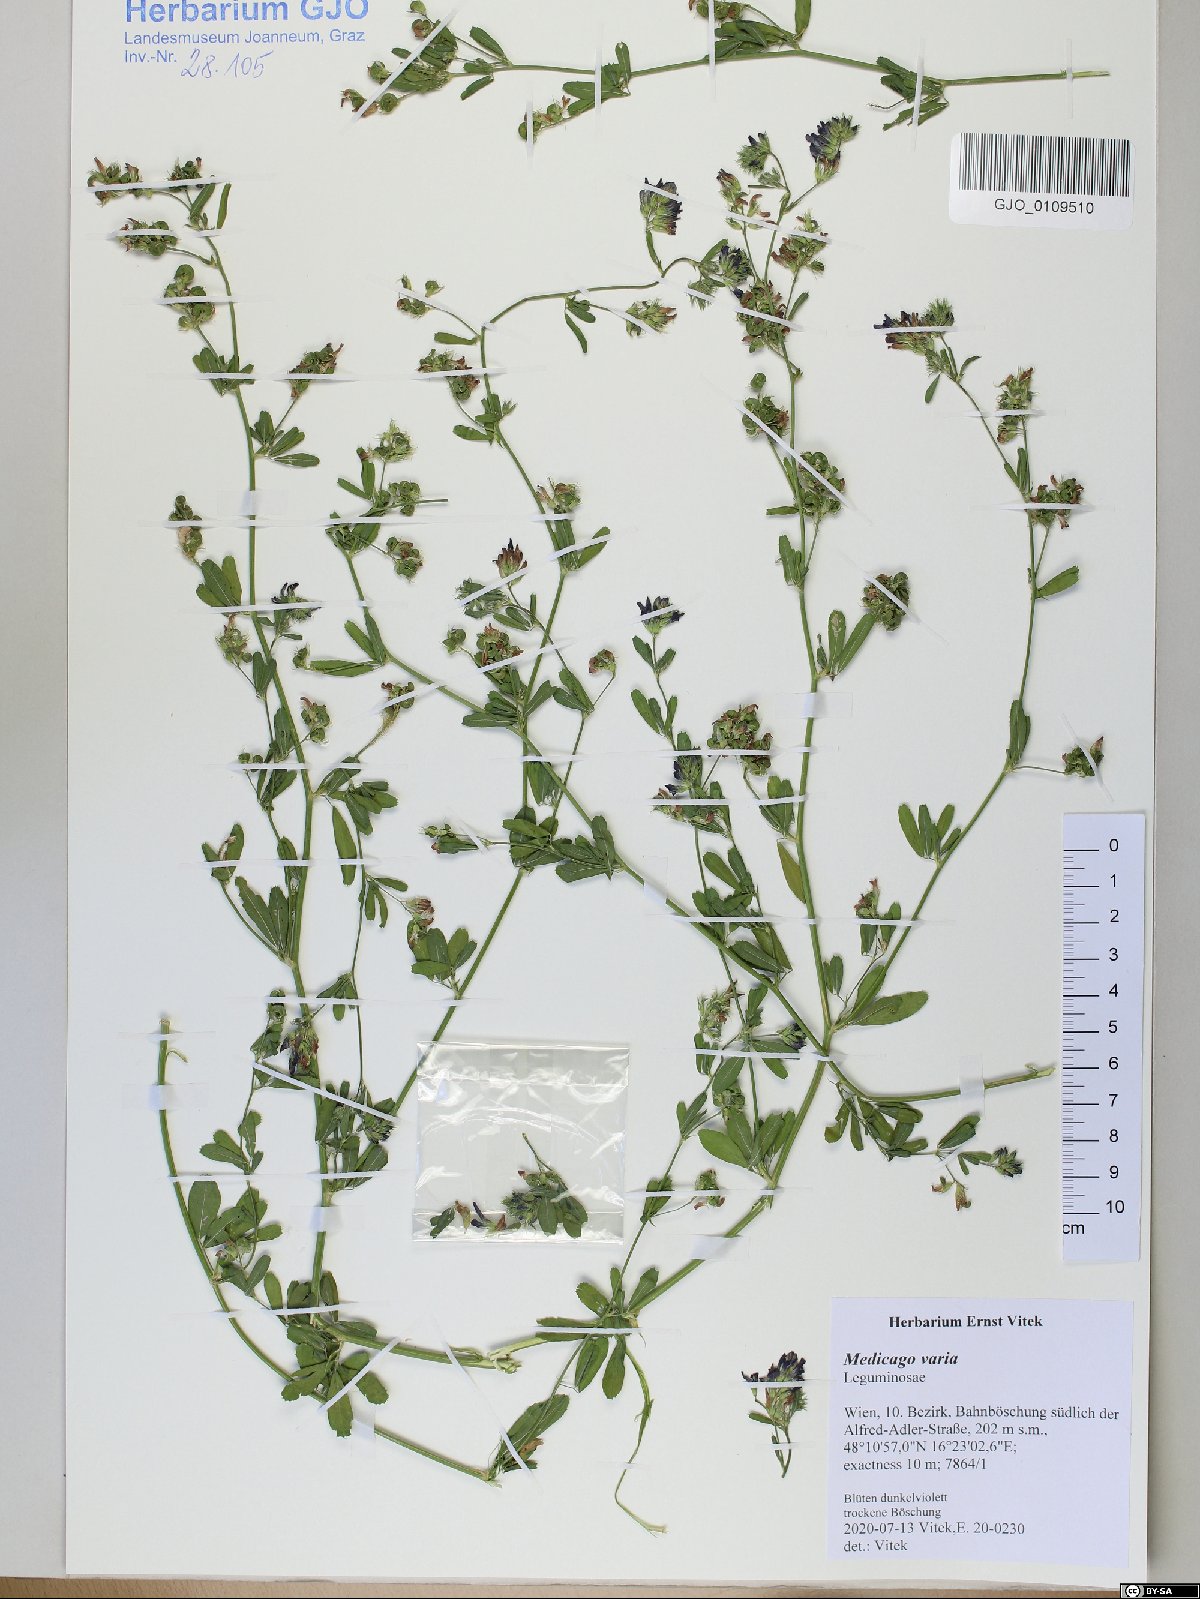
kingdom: Plantae
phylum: Tracheophyta
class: Magnoliopsida
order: Fabales
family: Fabaceae
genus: Medicago
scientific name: Medicago varia
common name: Sand lucerne
